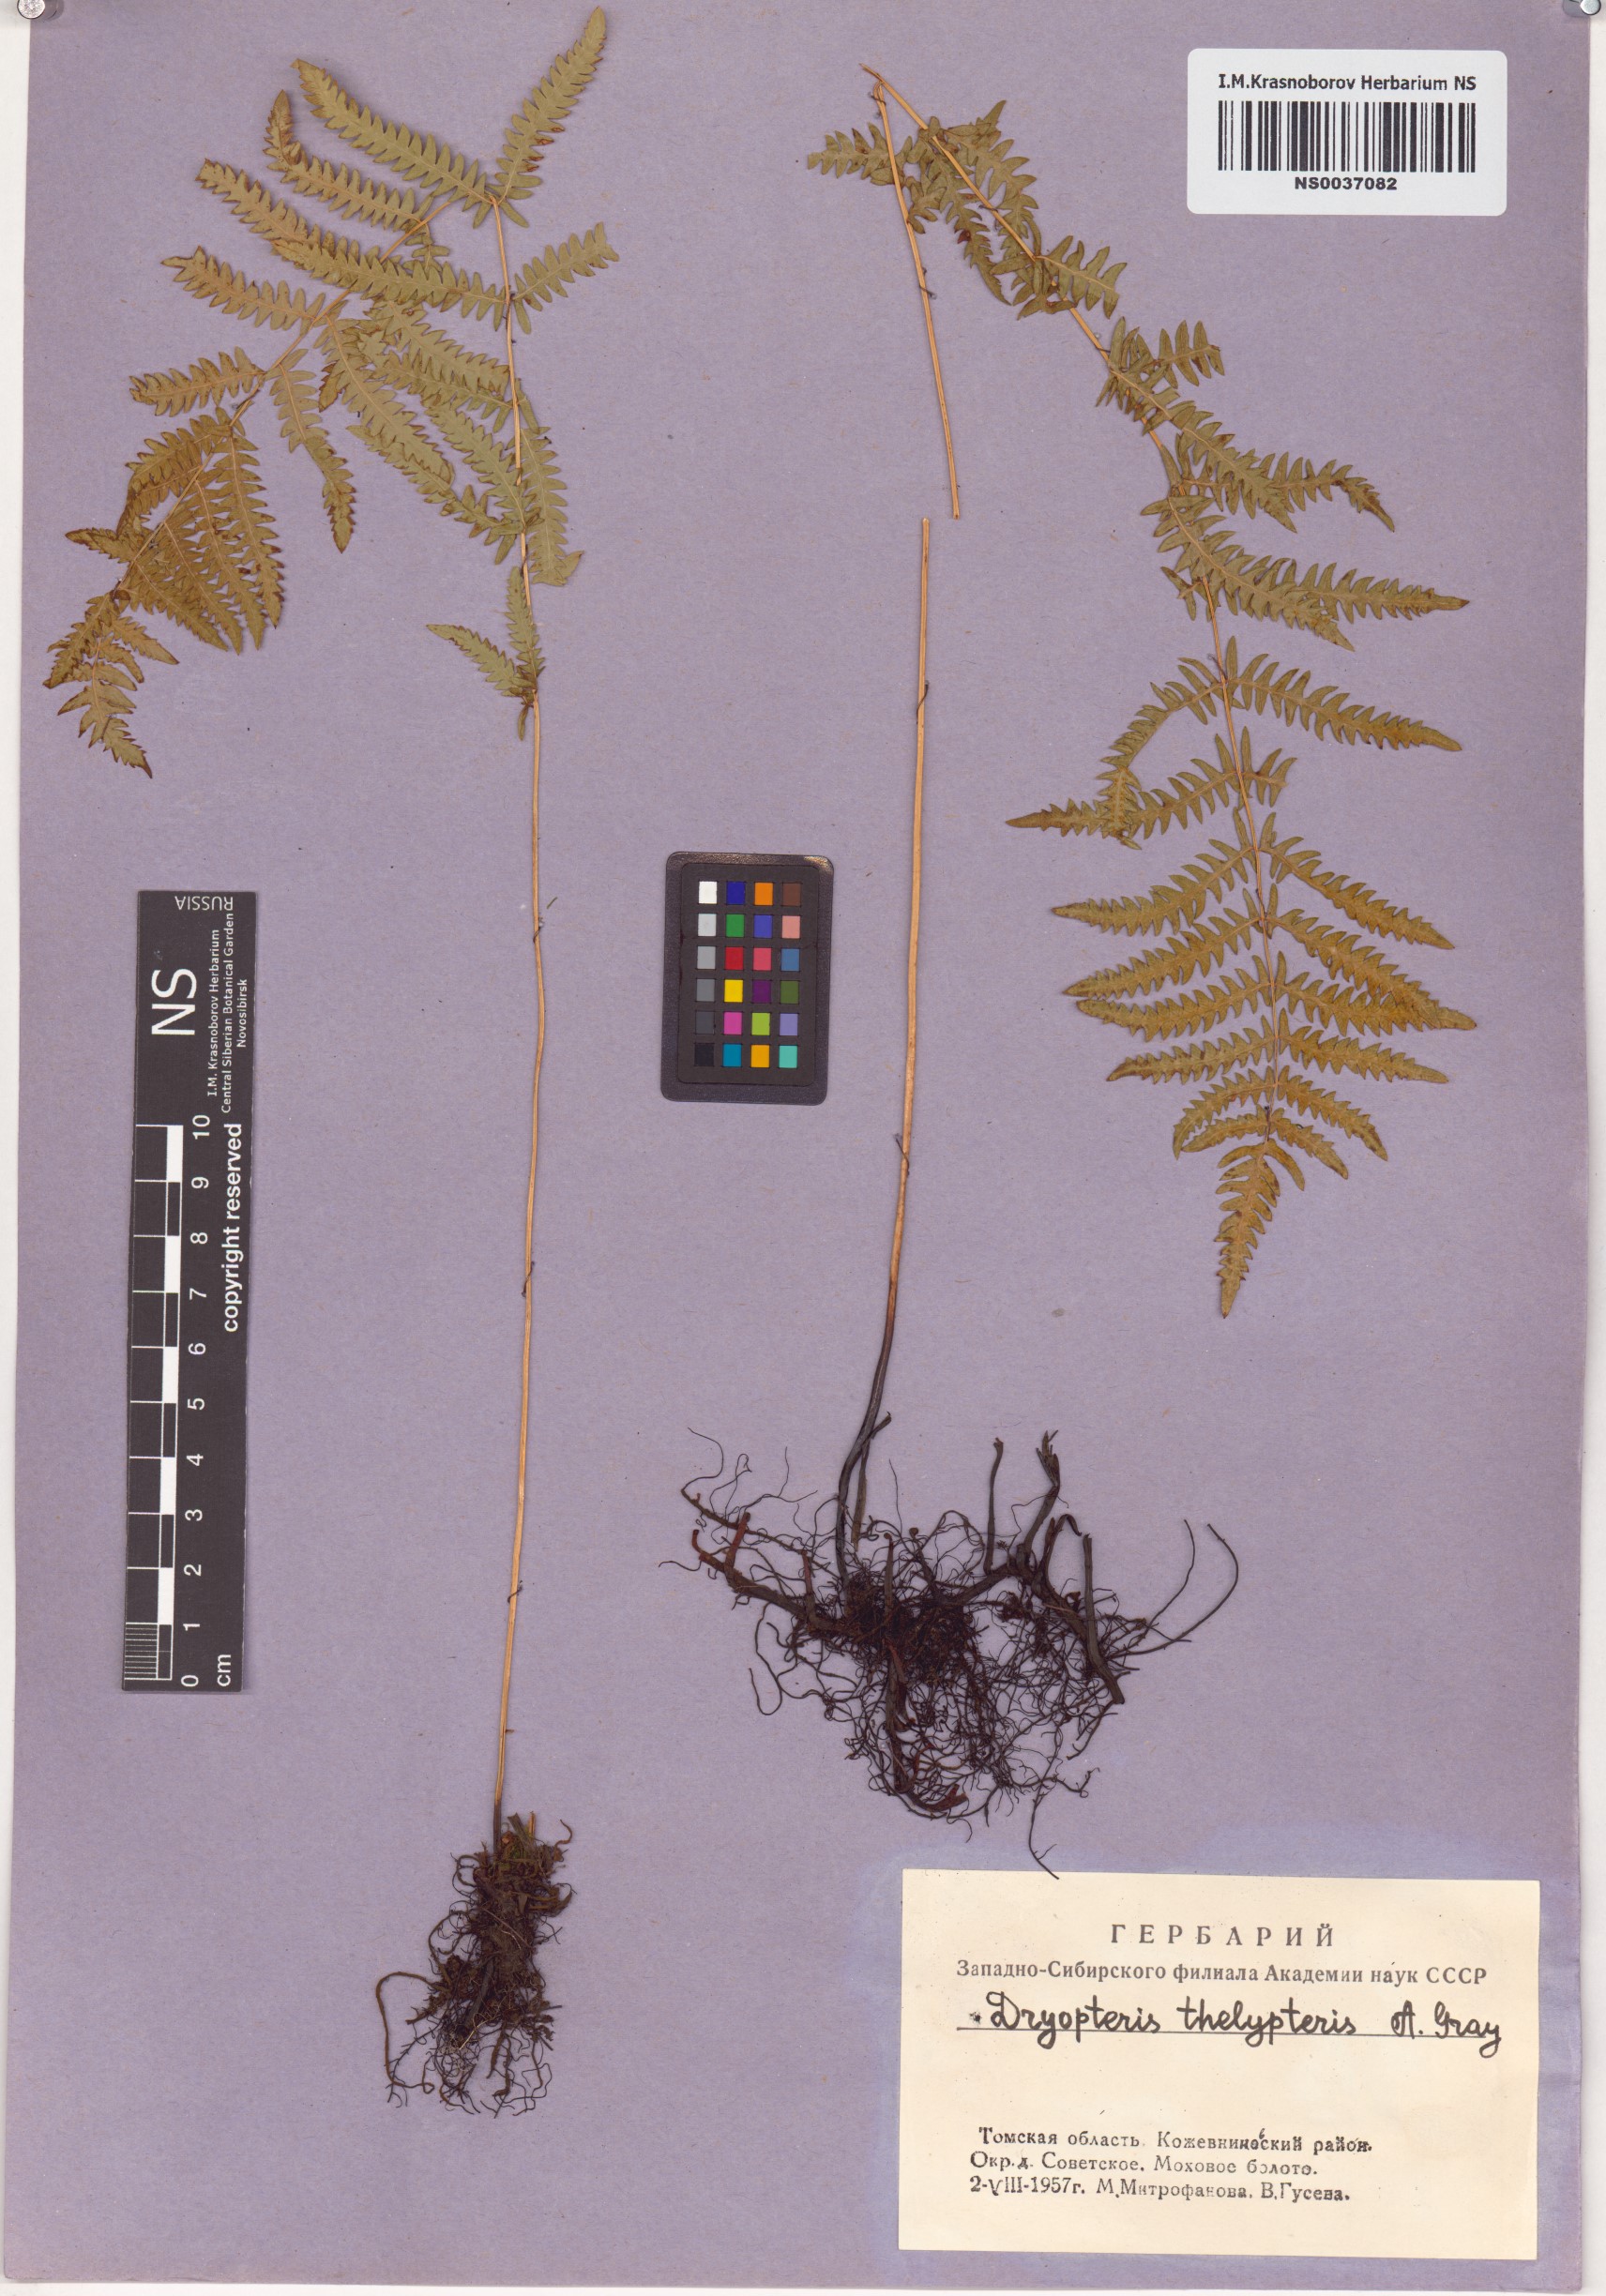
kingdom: Plantae
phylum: Tracheophyta
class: Polypodiopsida
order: Polypodiales
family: Thelypteridaceae
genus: Thelypteris
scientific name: Thelypteris palustris
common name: Marsh fern
